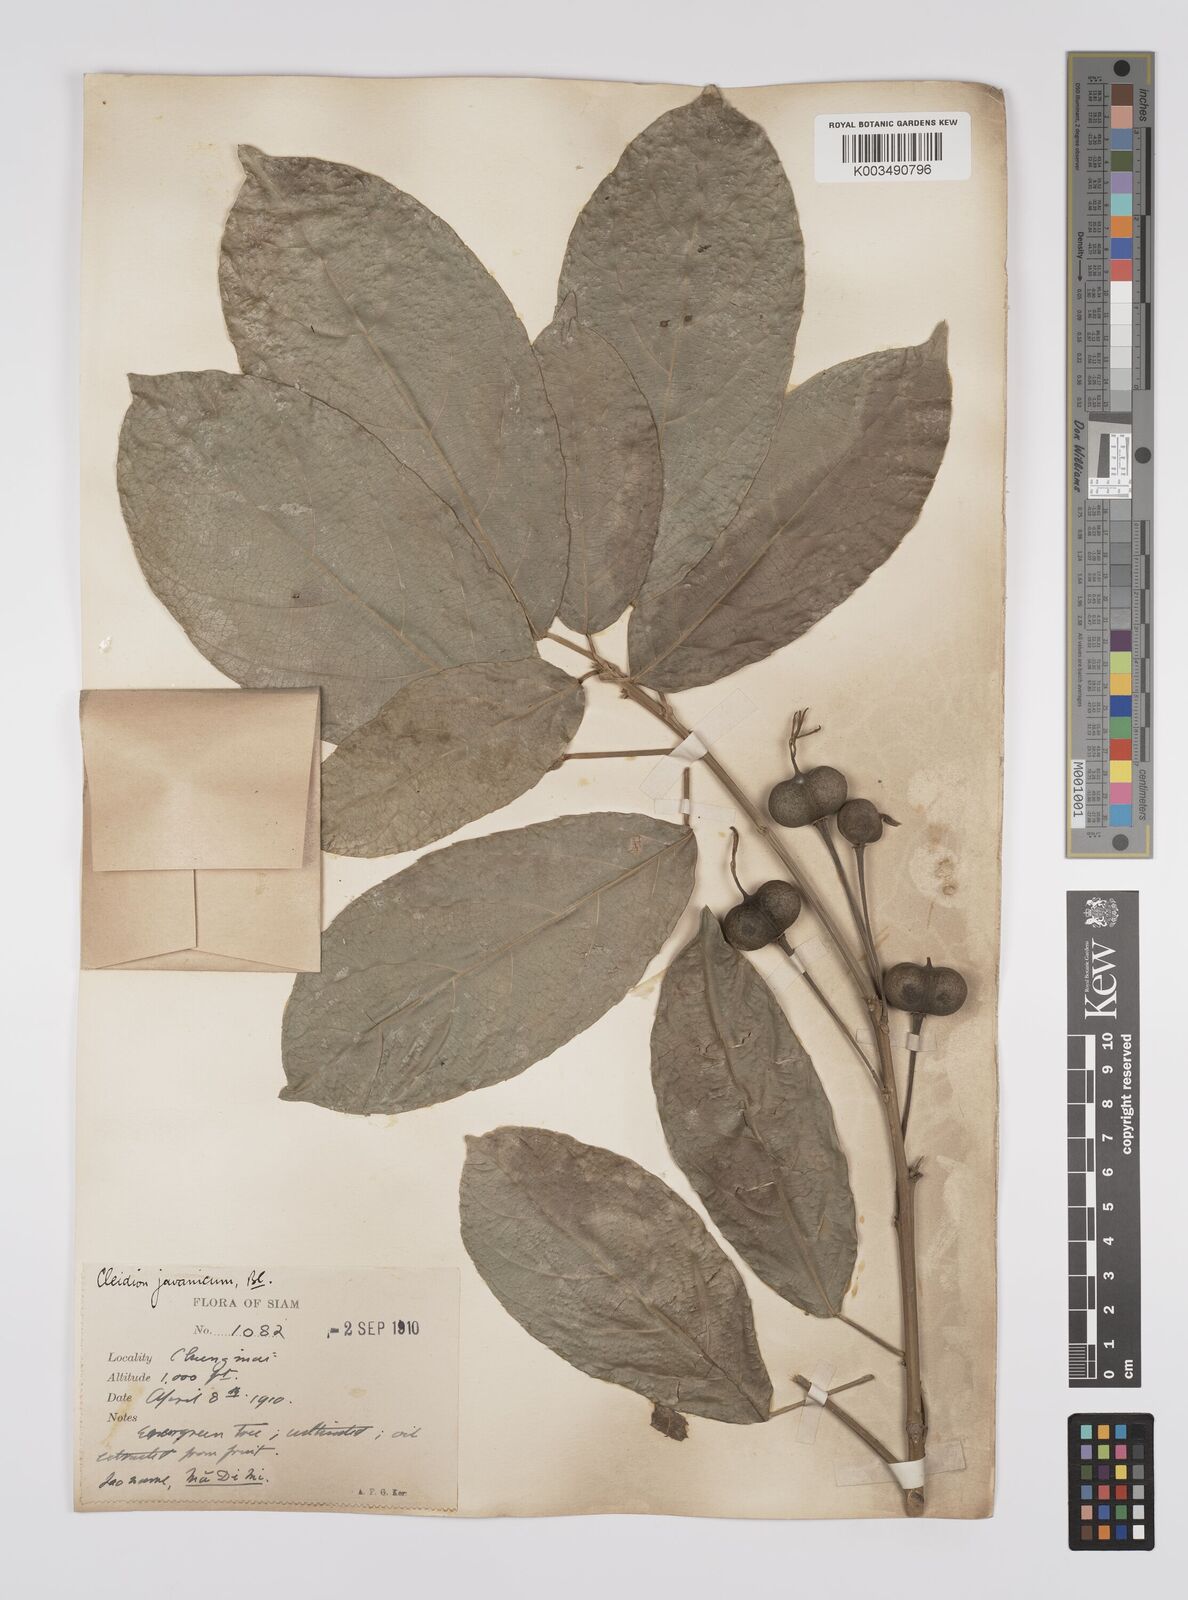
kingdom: Plantae
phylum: Tracheophyta
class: Magnoliopsida
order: Malpighiales
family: Euphorbiaceae
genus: Cleidion
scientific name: Cleidion javanicum
